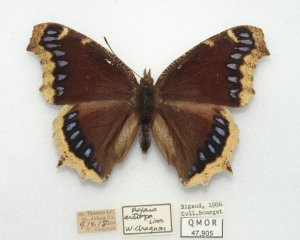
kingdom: Animalia
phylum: Arthropoda
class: Insecta
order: Lepidoptera
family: Nymphalidae
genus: Nymphalis
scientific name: Nymphalis antiopa
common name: Mourning Cloak
